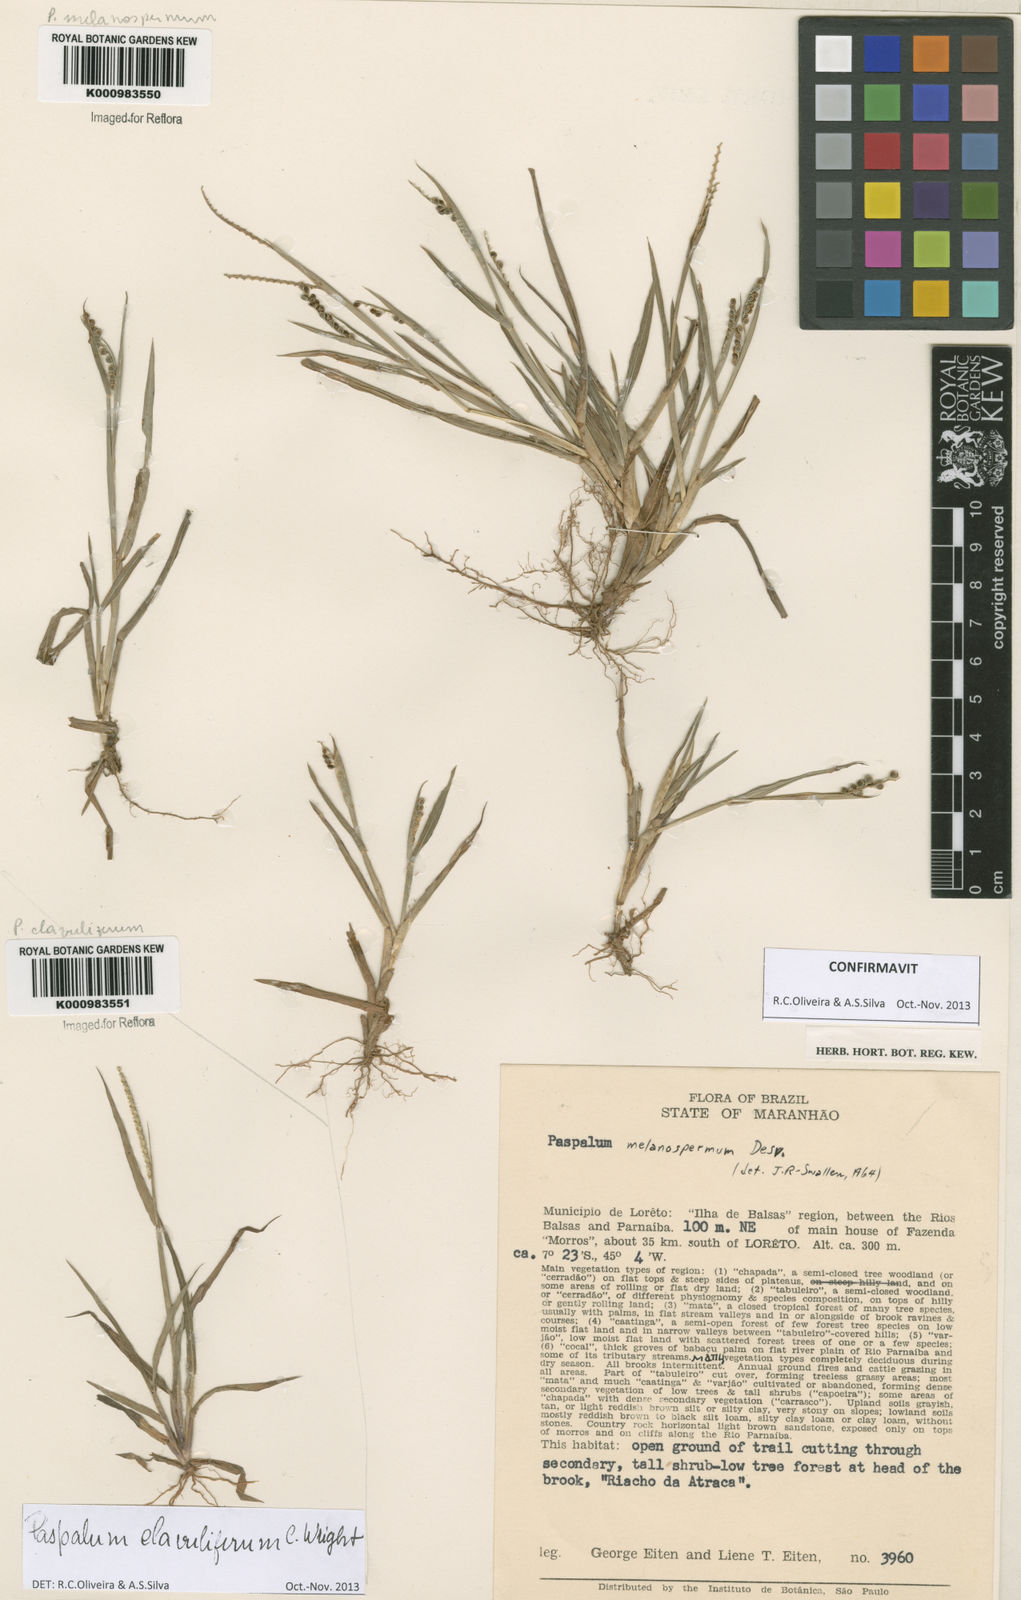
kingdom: Plantae
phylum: Tracheophyta
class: Liliopsida
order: Poales
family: Poaceae
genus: Paspalum
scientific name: Paspalum melanospermum
